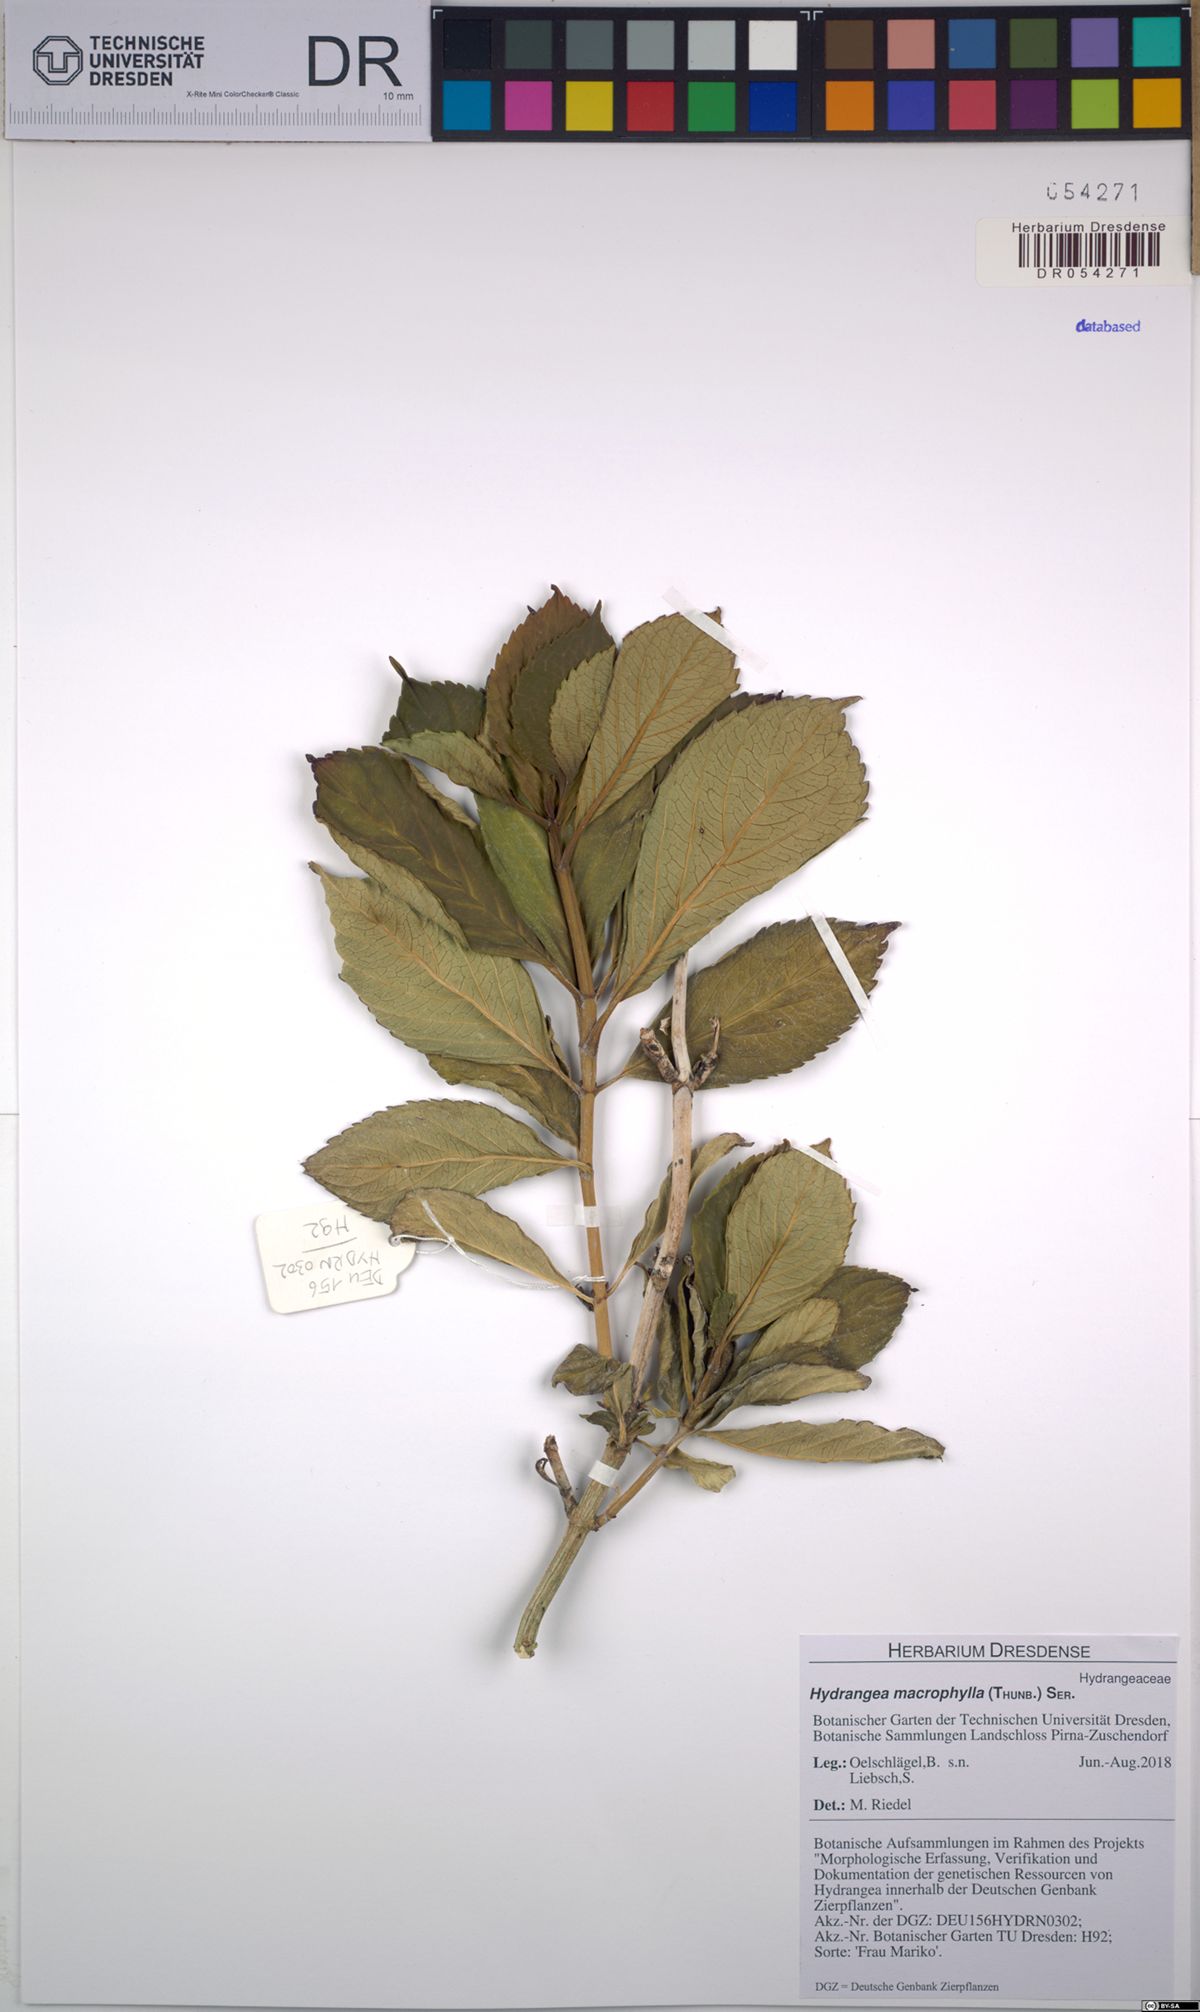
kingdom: Plantae
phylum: Tracheophyta
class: Magnoliopsida
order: Cornales
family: Hydrangeaceae
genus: Hydrangea
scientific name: Hydrangea macrophylla
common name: Hydrangea
